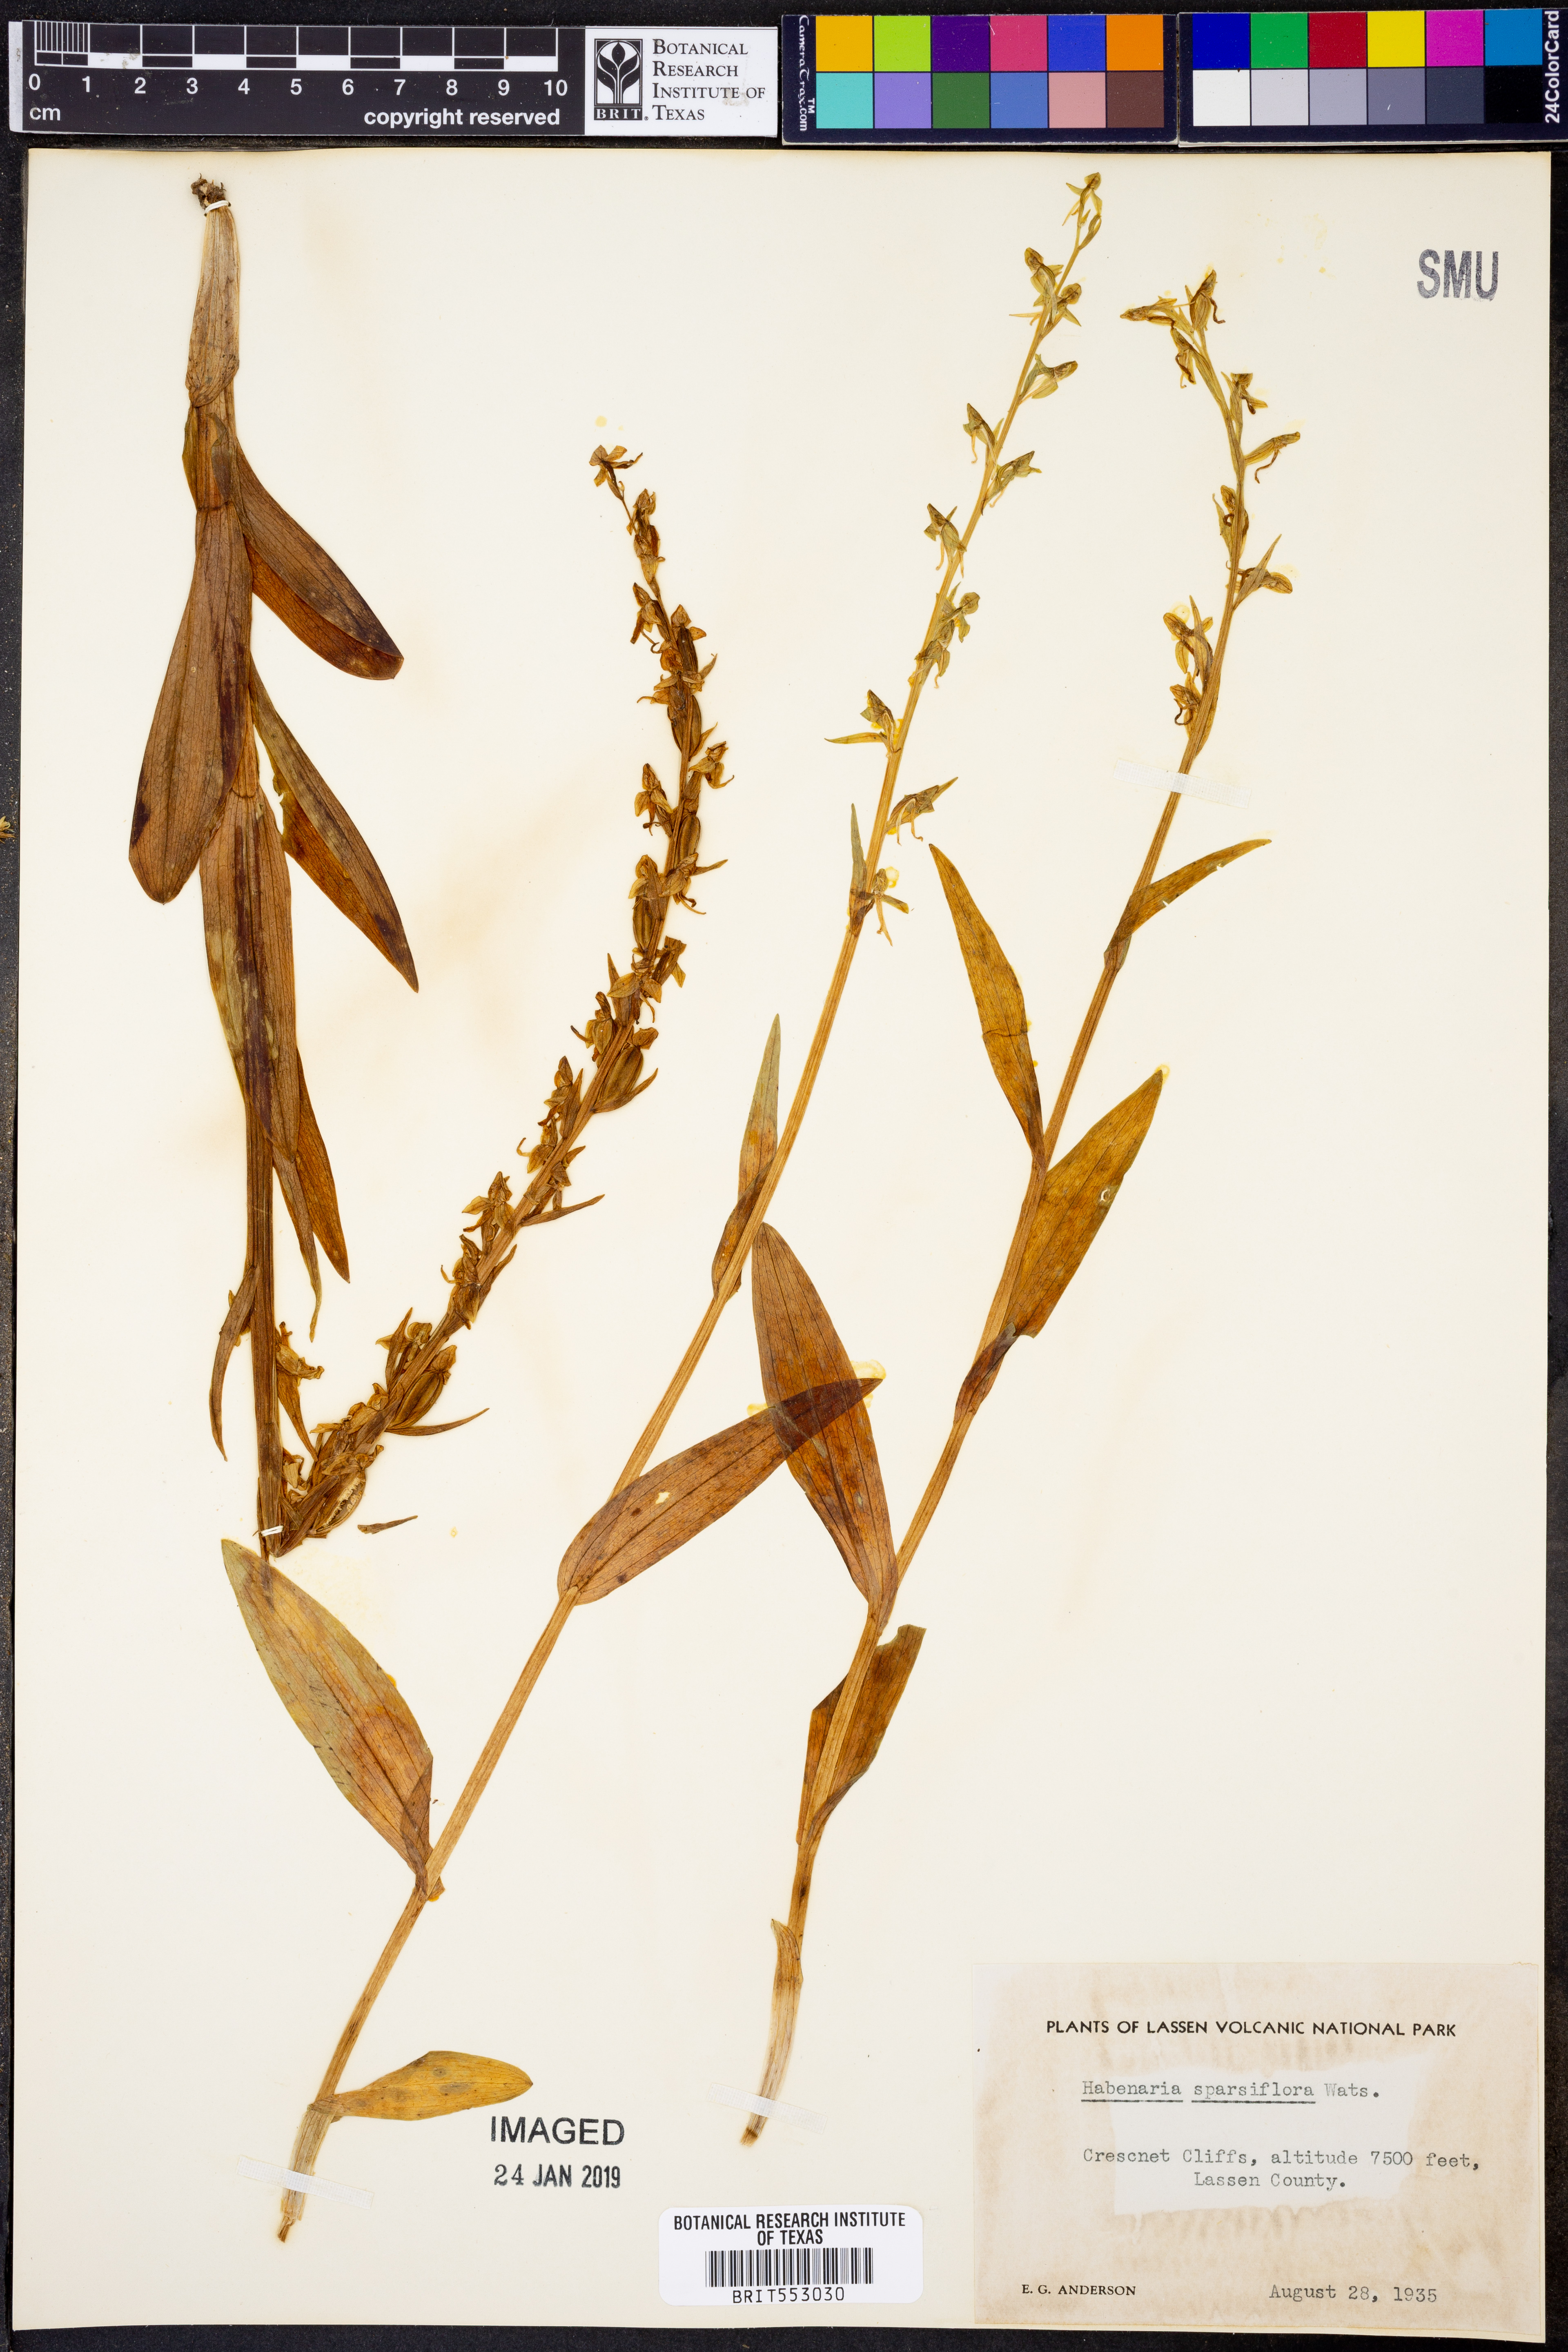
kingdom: Plantae
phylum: Tracheophyta
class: Liliopsida
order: Asparagales
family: Orchidaceae
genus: Platanthera
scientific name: Platanthera sparsiflora
